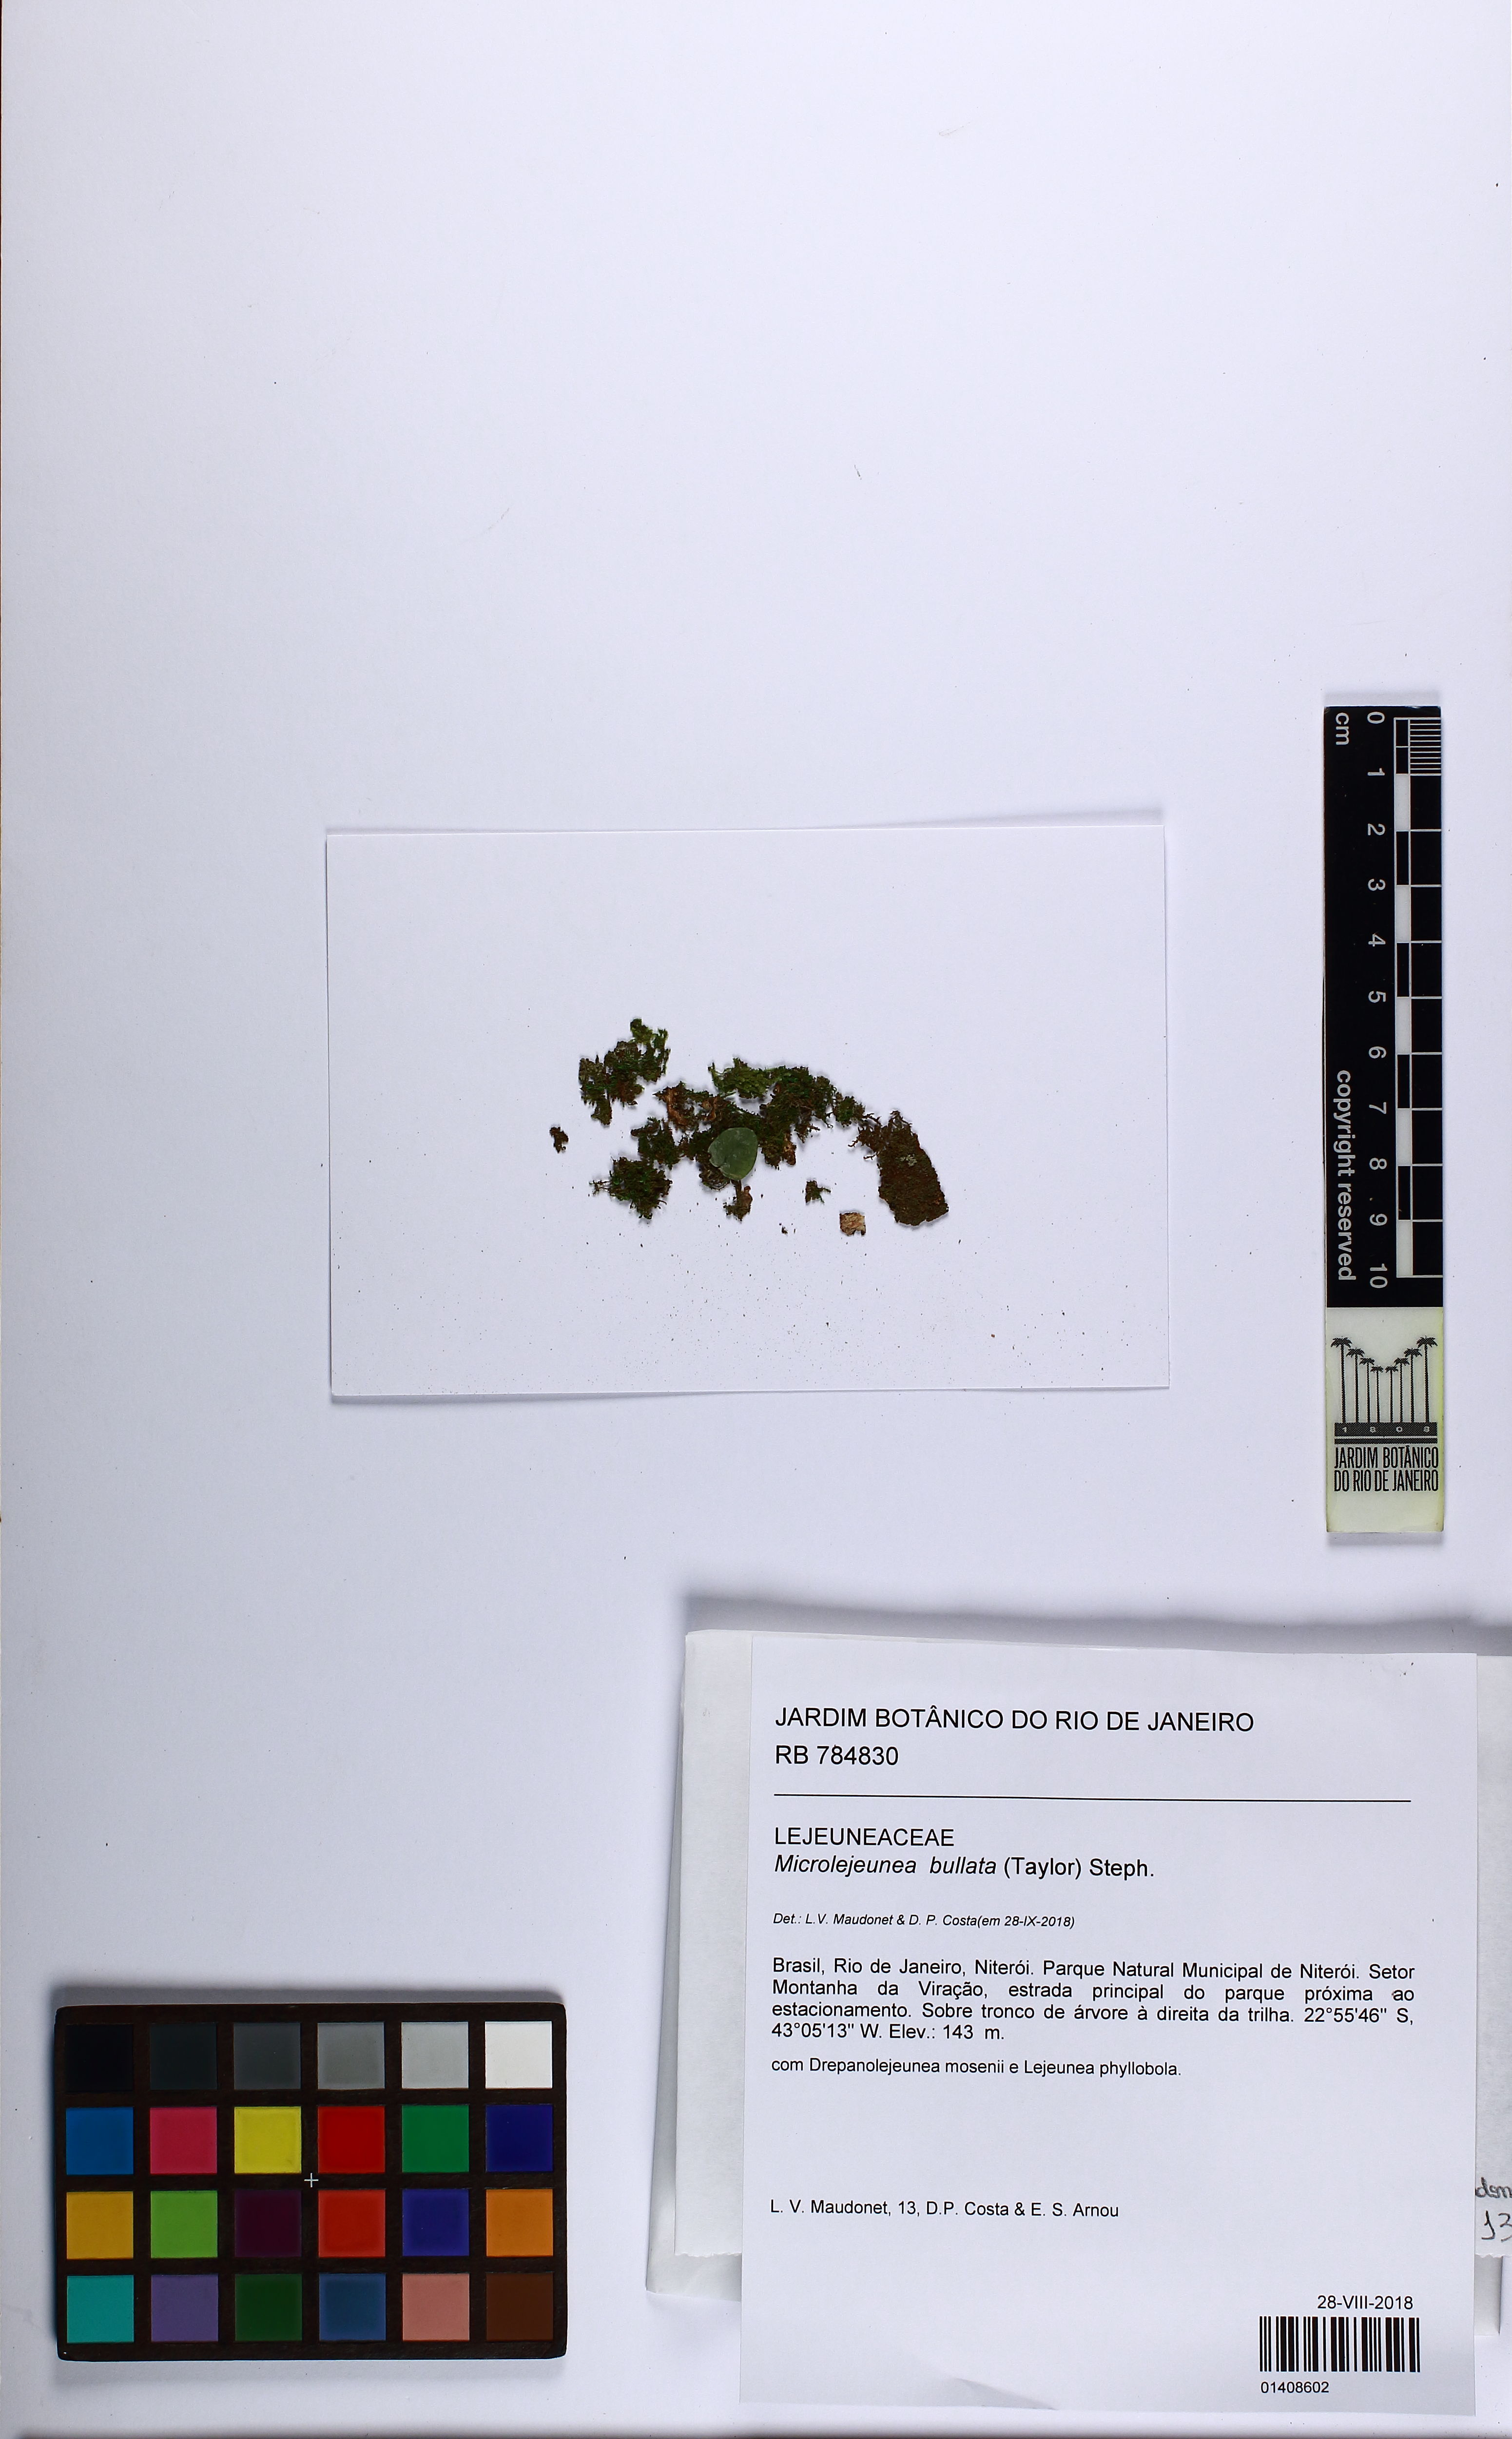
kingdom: Plantae
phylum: Marchantiophyta
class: Jungermanniopsida
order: Porellales
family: Lejeuneaceae
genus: Microlejeunea
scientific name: Microlejeunea bullata
